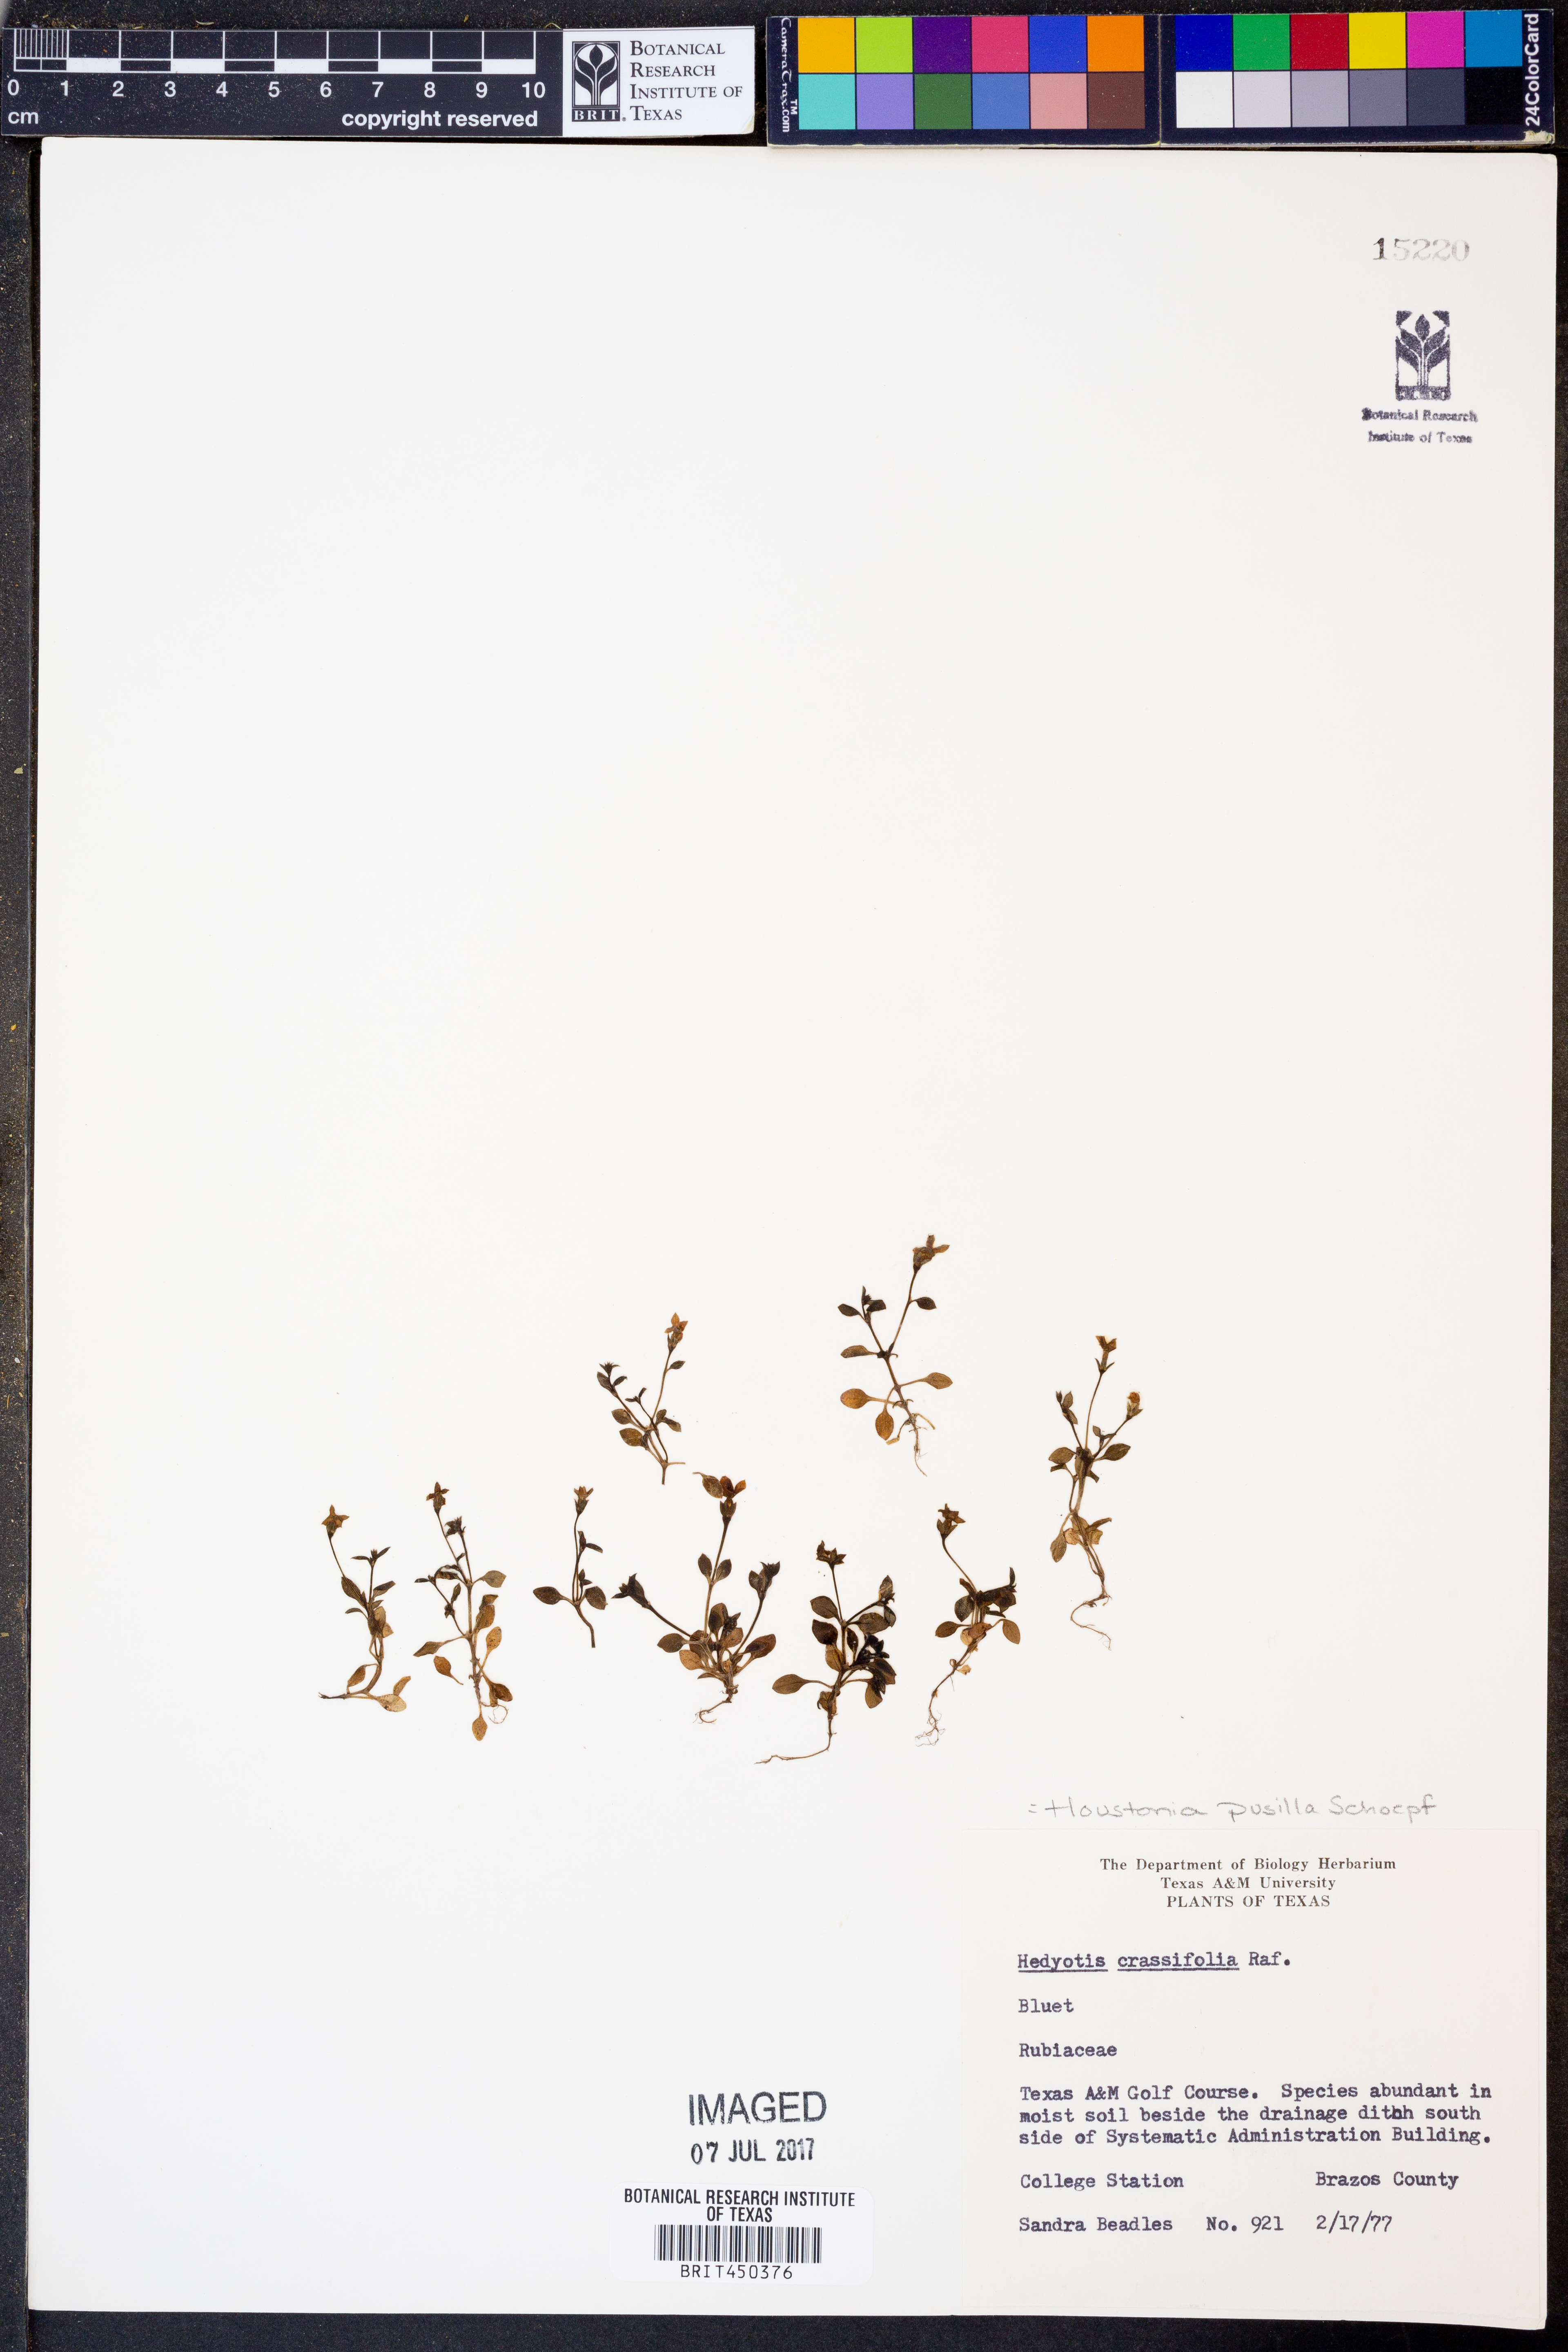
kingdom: Plantae
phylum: Tracheophyta
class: Magnoliopsida
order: Gentianales
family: Rubiaceae
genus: Houstonia
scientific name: Houstonia pusilla
